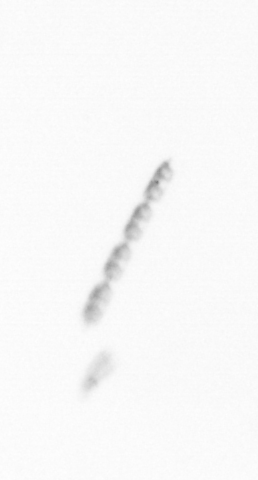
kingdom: Chromista
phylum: Ochrophyta
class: Bacillariophyceae
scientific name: Bacillariophyceae
